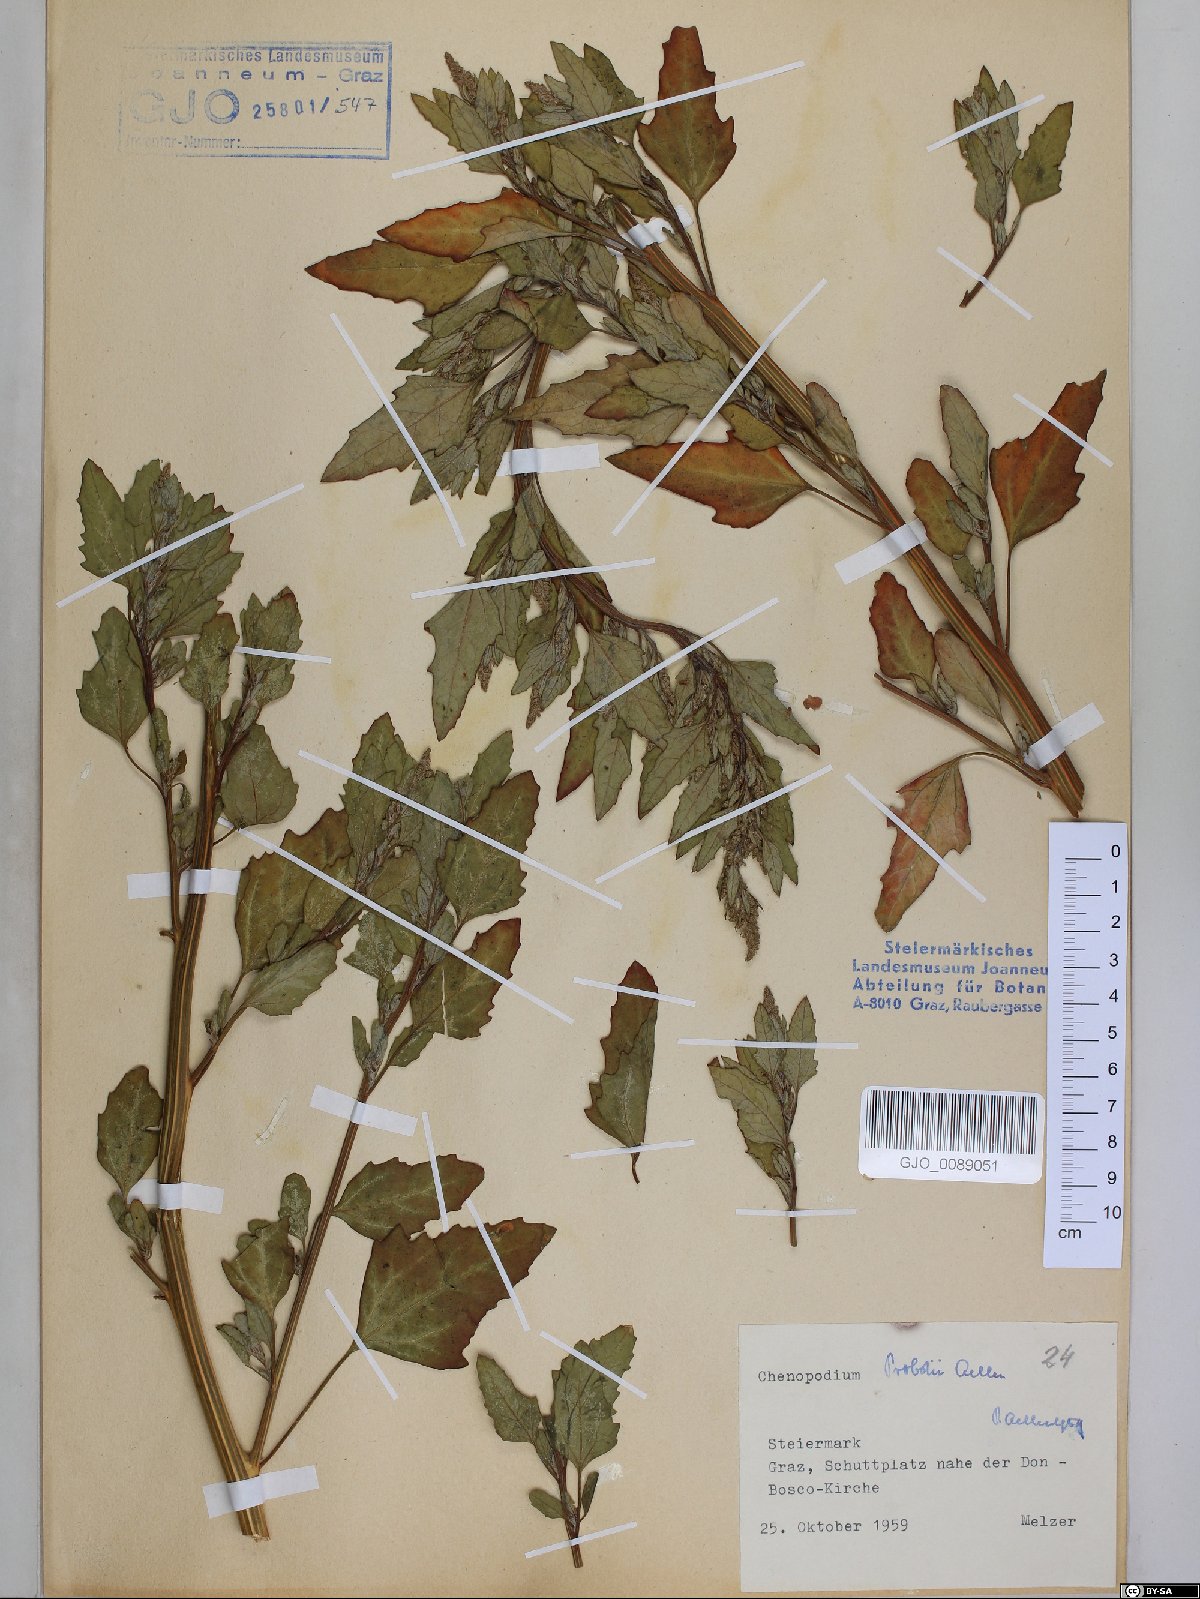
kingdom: Plantae
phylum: Tracheophyta
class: Magnoliopsida
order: Caryophyllales
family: Amaranthaceae
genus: Chenopodium
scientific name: Chenopodium probstii
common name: Probst's goosefoot
